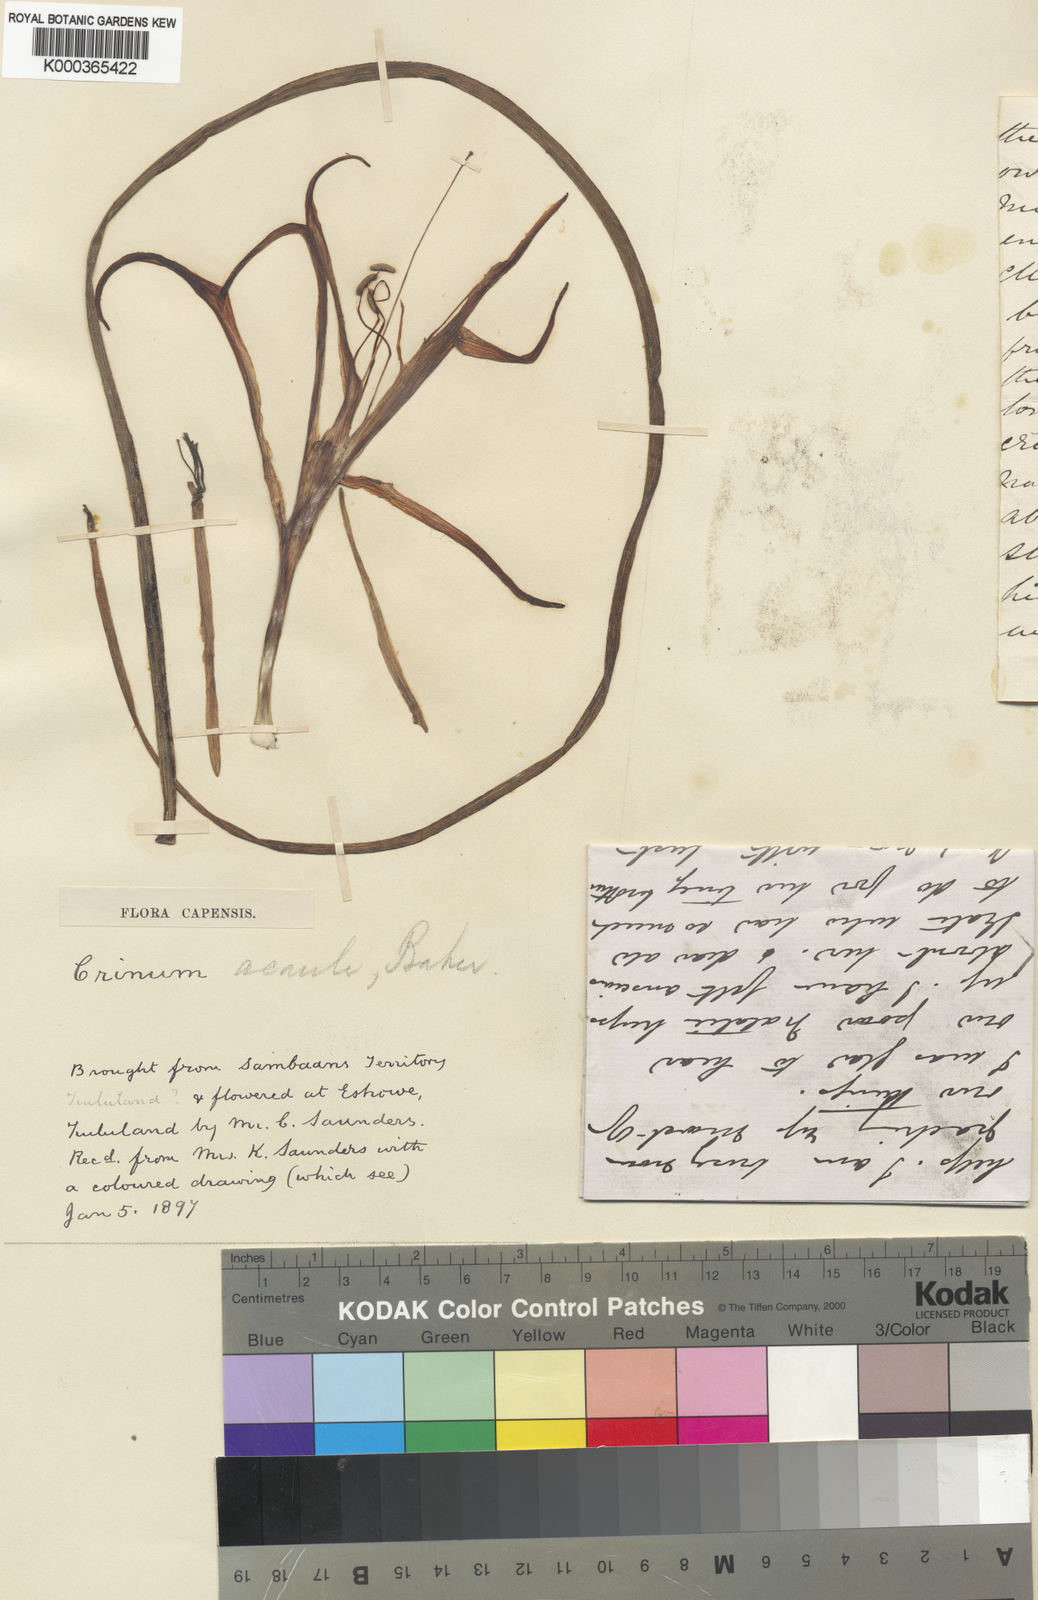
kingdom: Plantae
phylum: Tracheophyta
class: Liliopsida
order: Asparagales
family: Amaryllidaceae
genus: Crinum
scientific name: Crinum acaule
